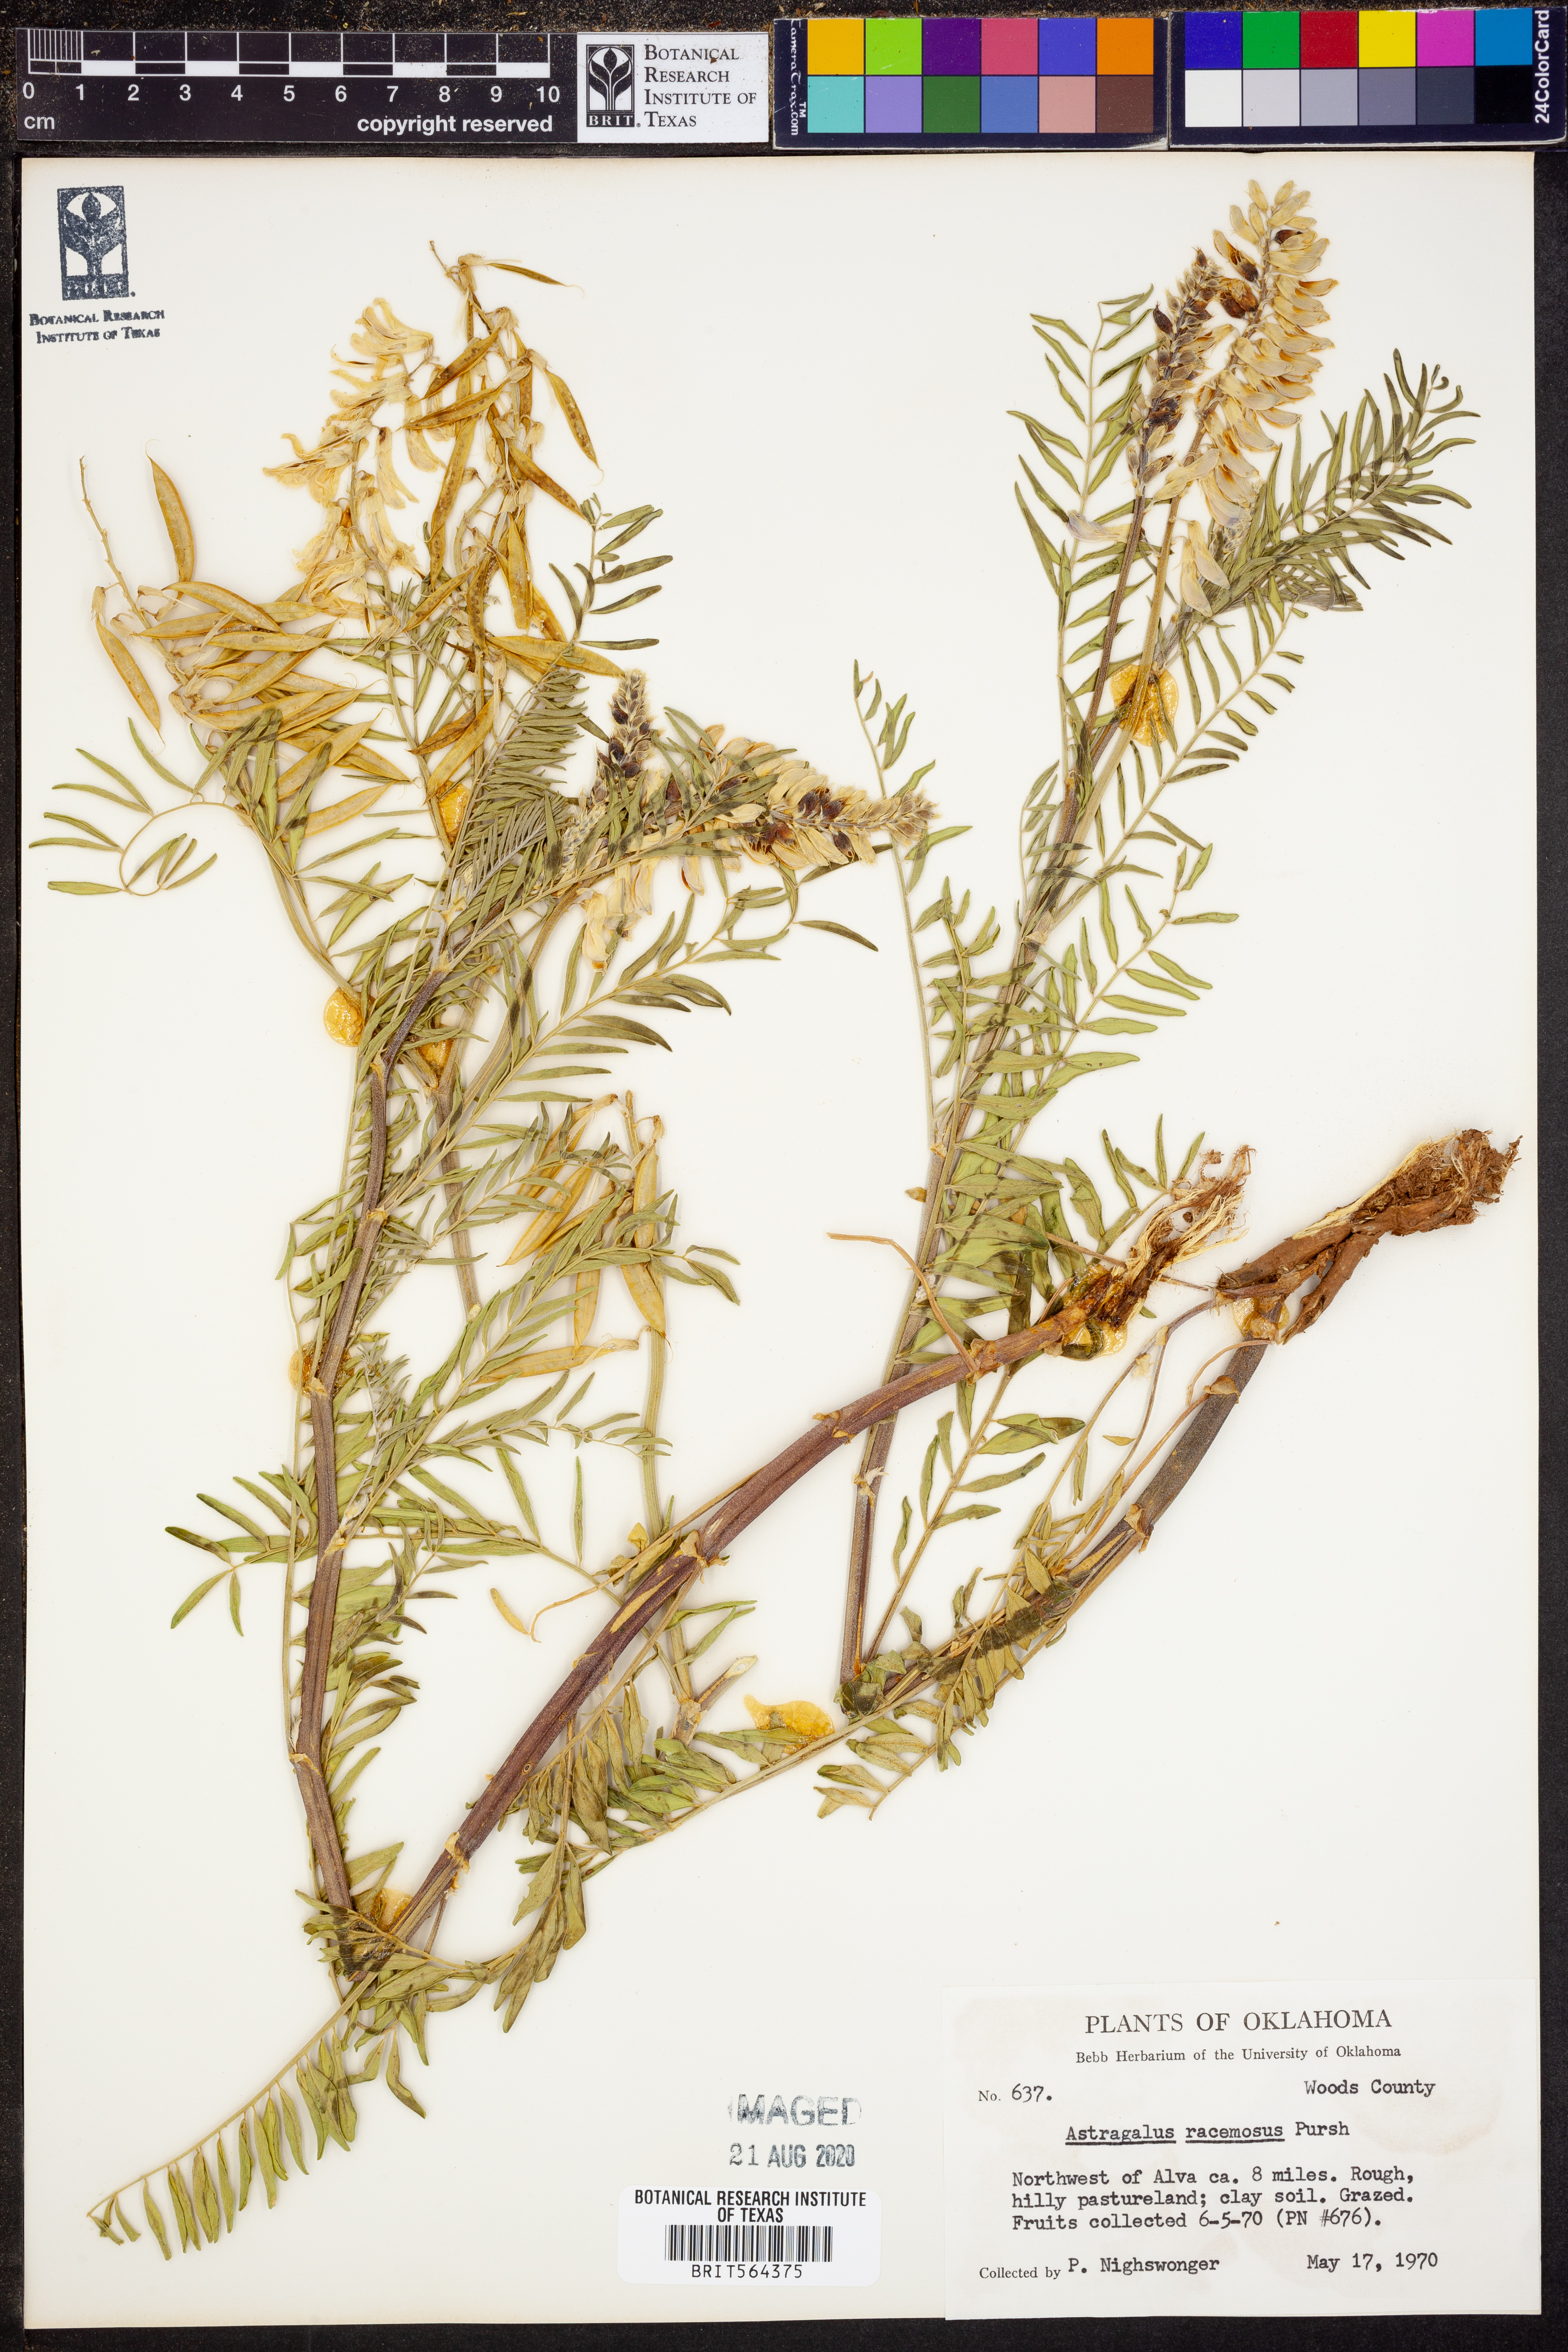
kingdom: Plantae
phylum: Tracheophyta
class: Magnoliopsida
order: Fabales
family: Fabaceae
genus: Astragalus
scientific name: Astragalus racemosus
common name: Alkali milk-vetch
